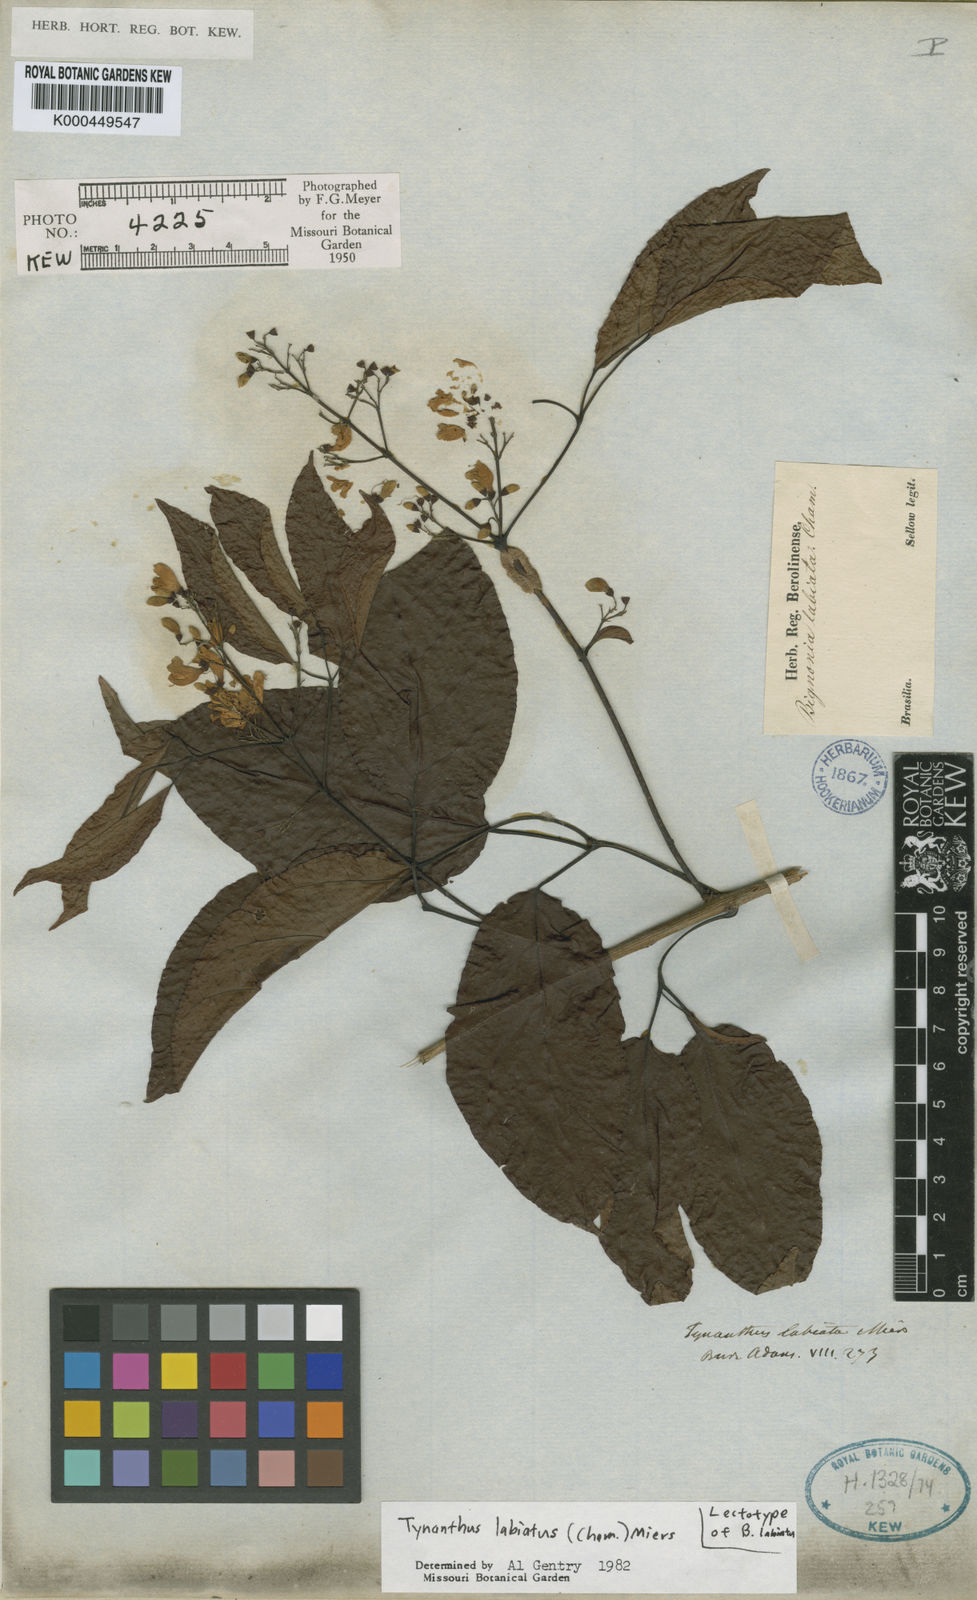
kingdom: Plantae
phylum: Tracheophyta
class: Magnoliopsida
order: Lamiales
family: Bignoniaceae
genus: Tynanthus
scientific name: Tynanthus labiatus
